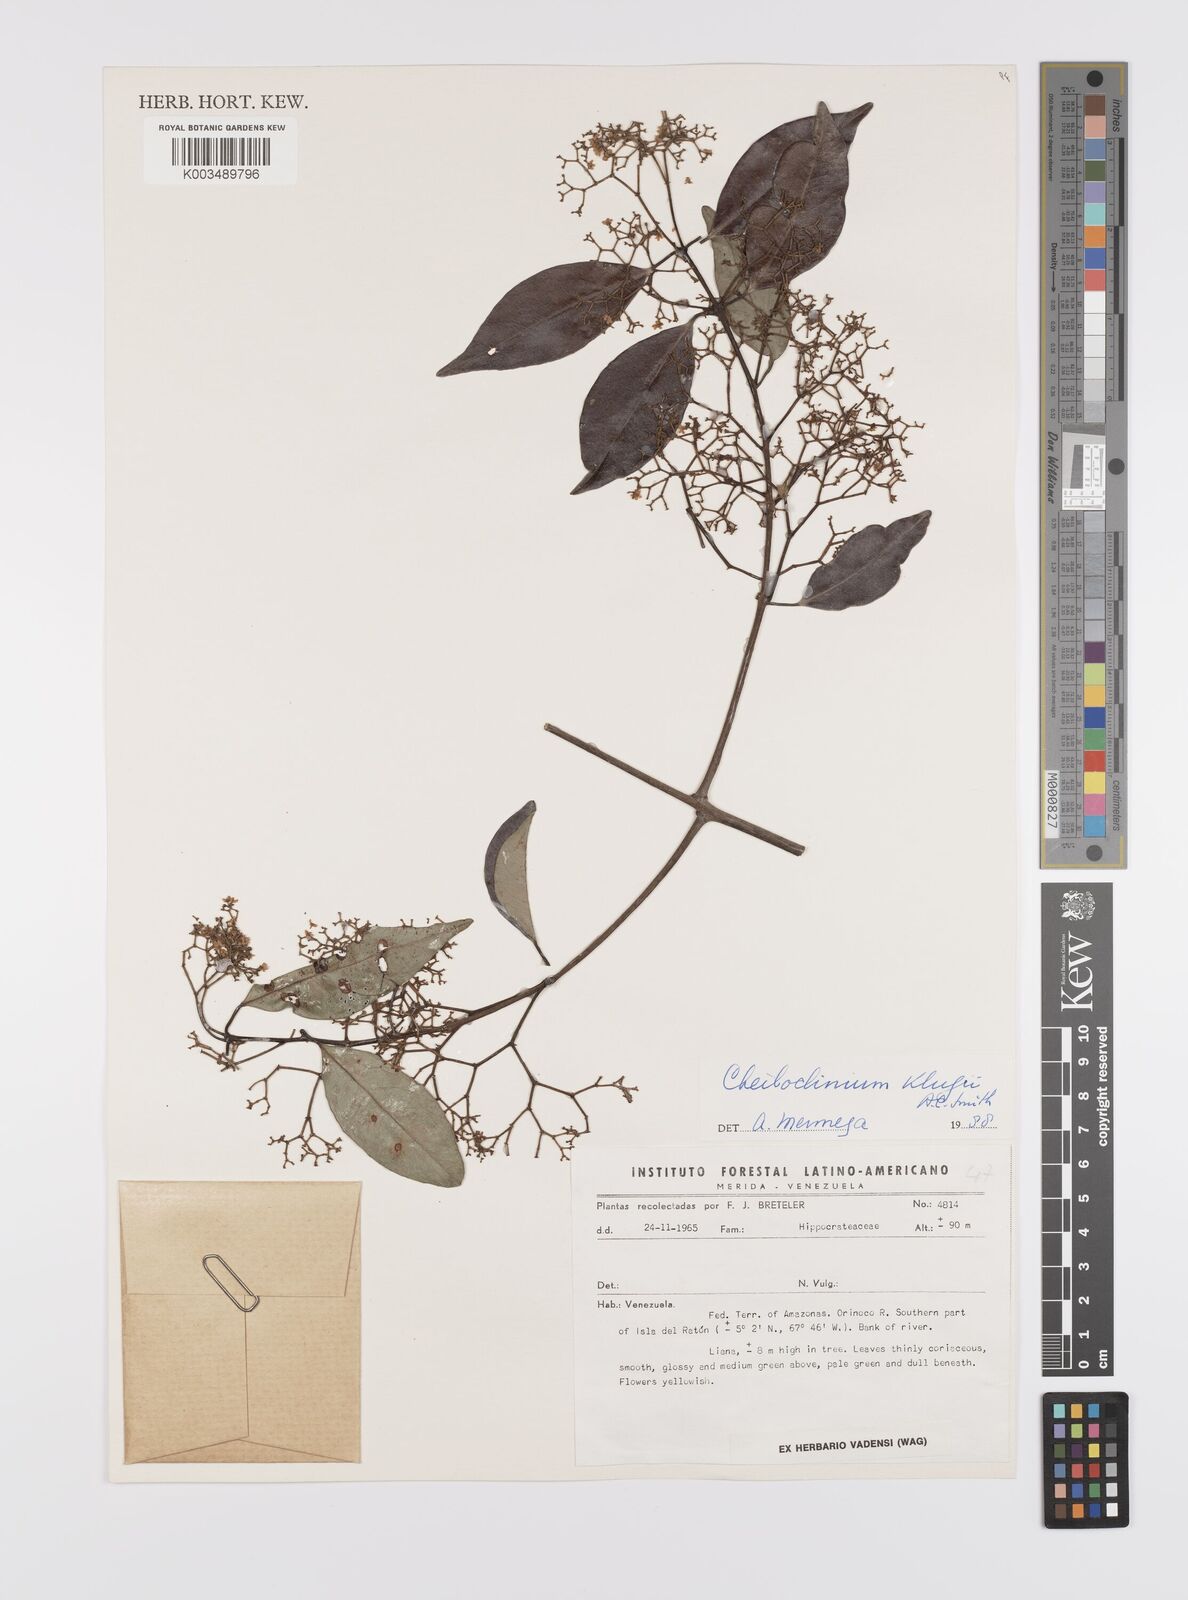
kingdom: Plantae
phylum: Tracheophyta
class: Magnoliopsida
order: Celastrales
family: Celastraceae
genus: Cheiloclinium
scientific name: Cheiloclinium belizense
